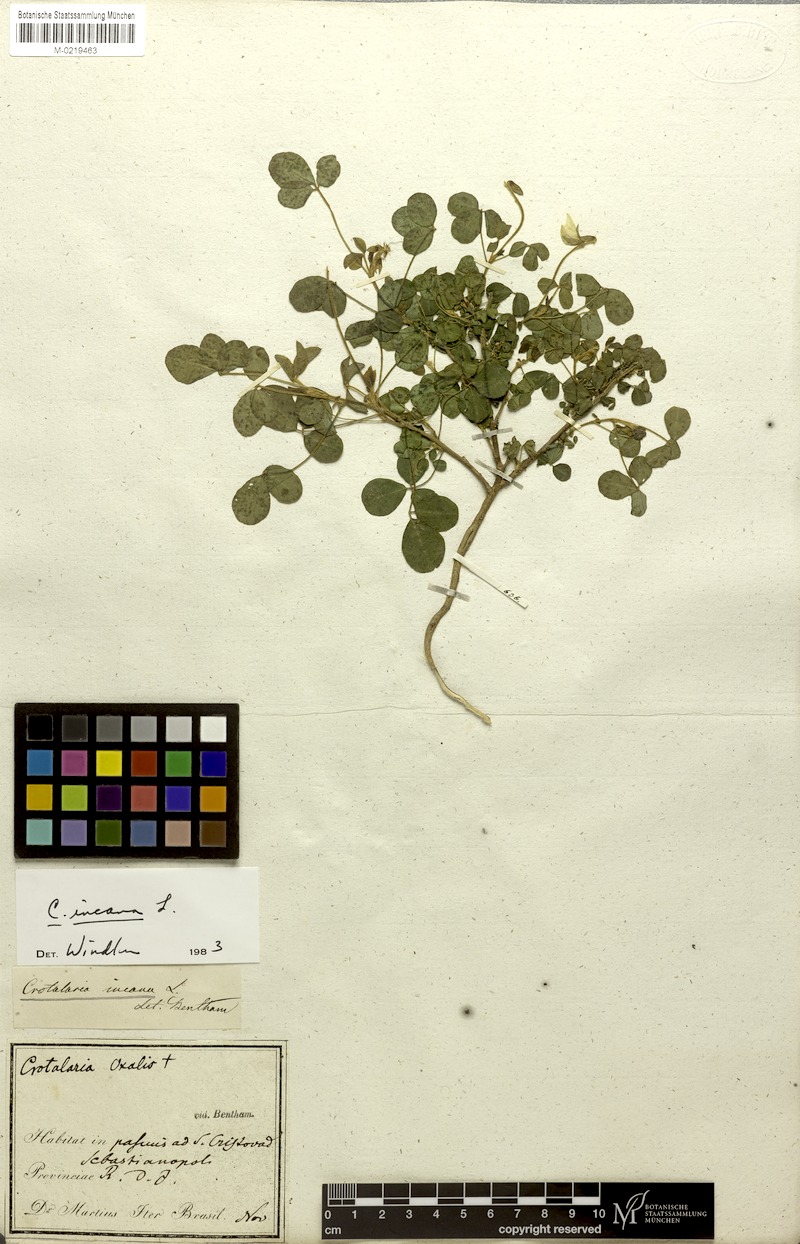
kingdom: Plantae
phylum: Tracheophyta
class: Magnoliopsida
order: Fabales
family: Fabaceae
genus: Crotalaria
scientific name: Crotalaria incana
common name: Shakeshake
